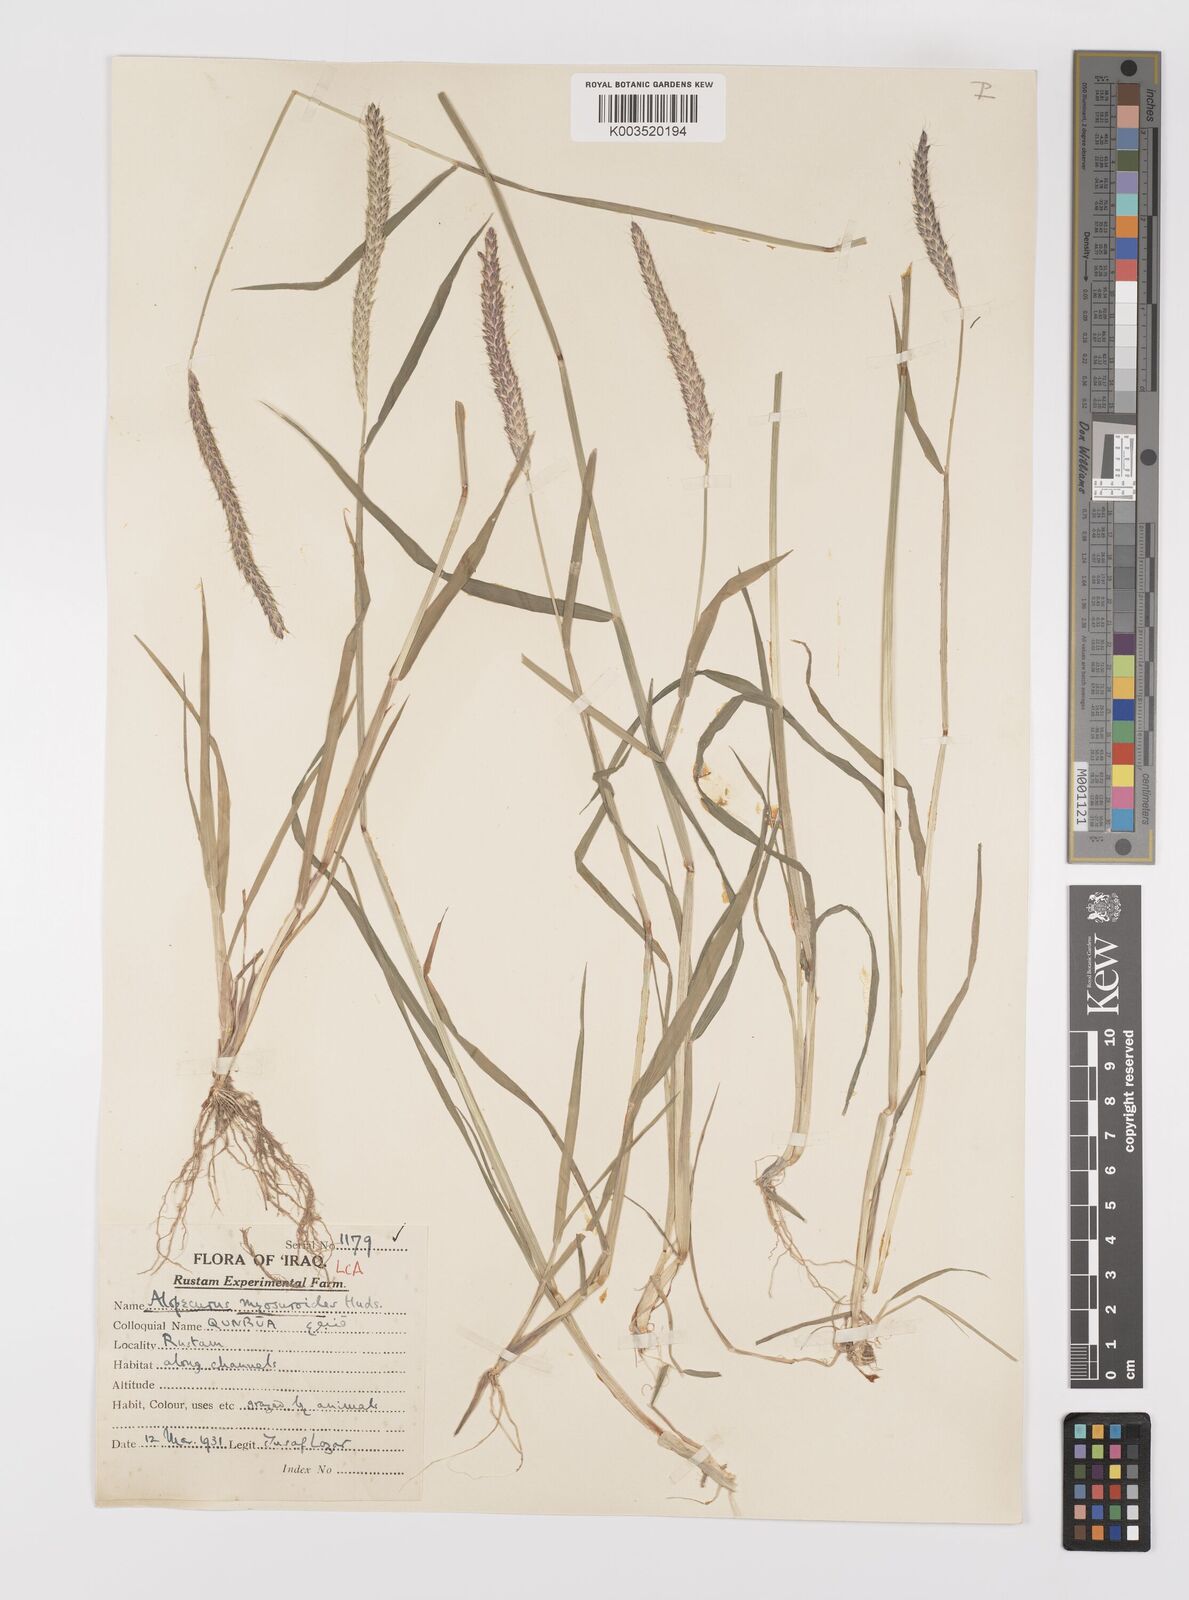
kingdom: Plantae
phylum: Tracheophyta
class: Liliopsida
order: Poales
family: Poaceae
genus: Alopecurus
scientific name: Alopecurus myosuroides
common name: Black-grass
